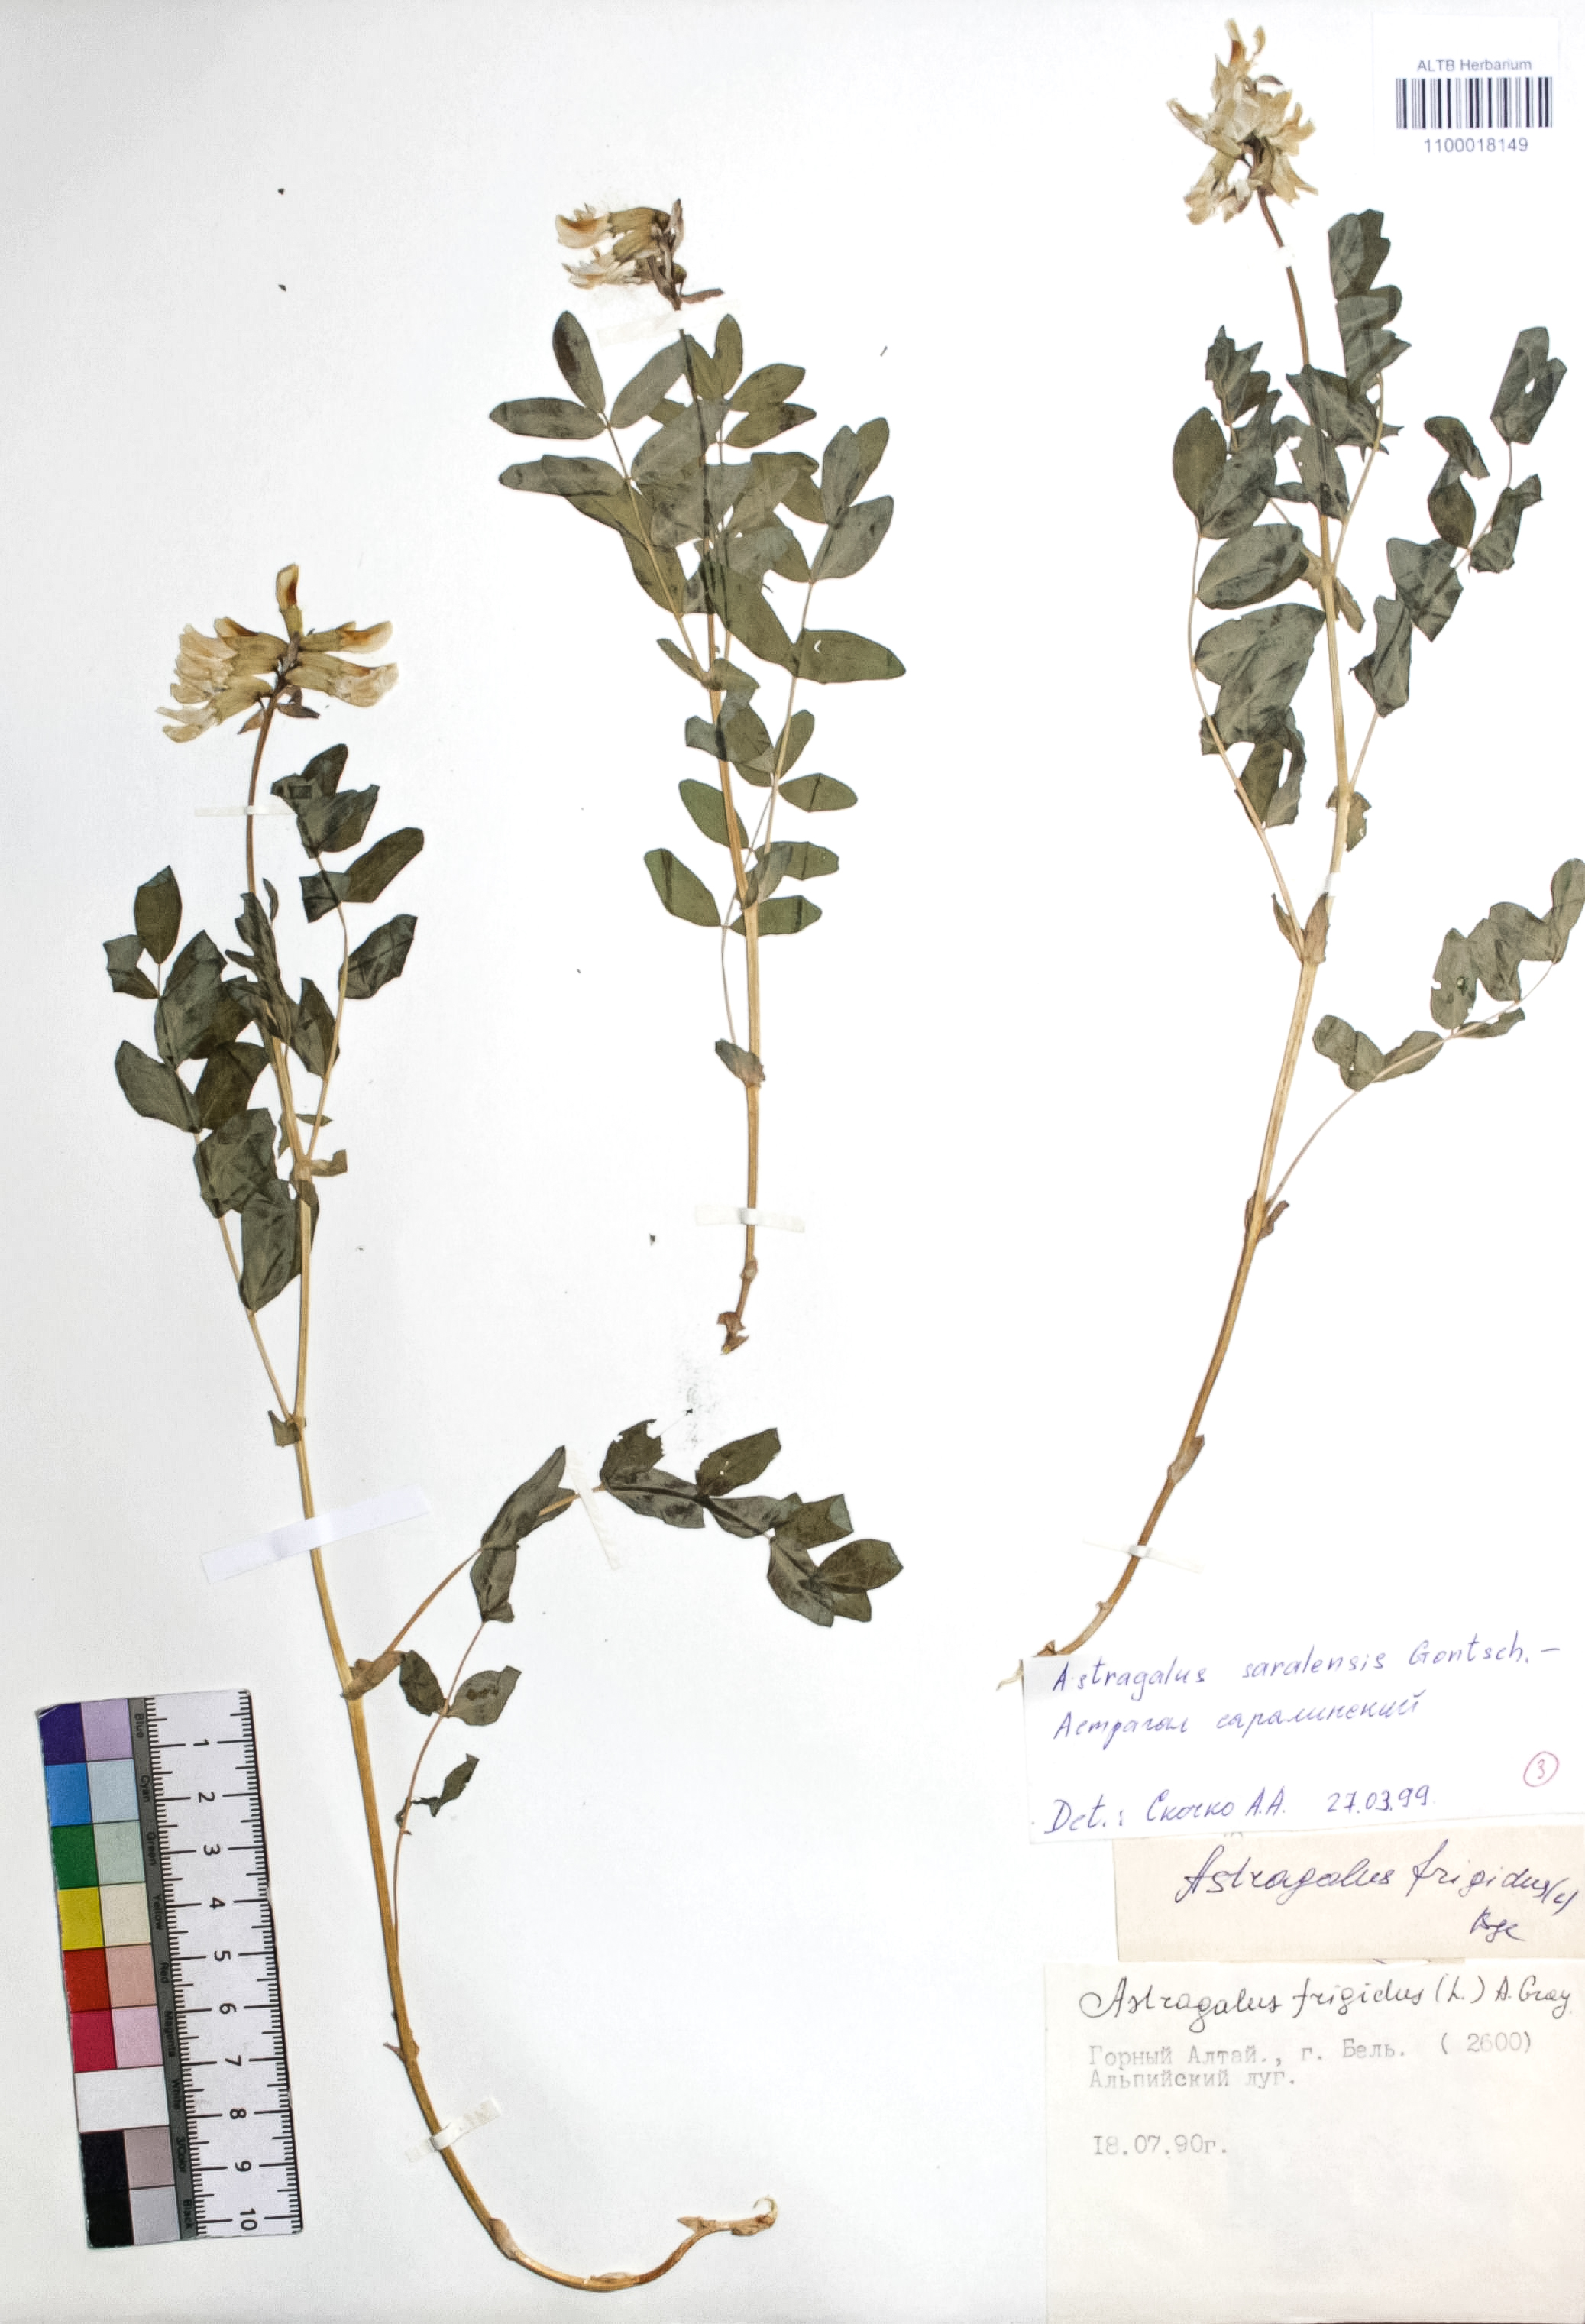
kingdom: Plantae
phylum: Tracheophyta
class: Magnoliopsida
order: Fabales
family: Fabaceae
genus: Astragalus
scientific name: Astragalus frigidus
